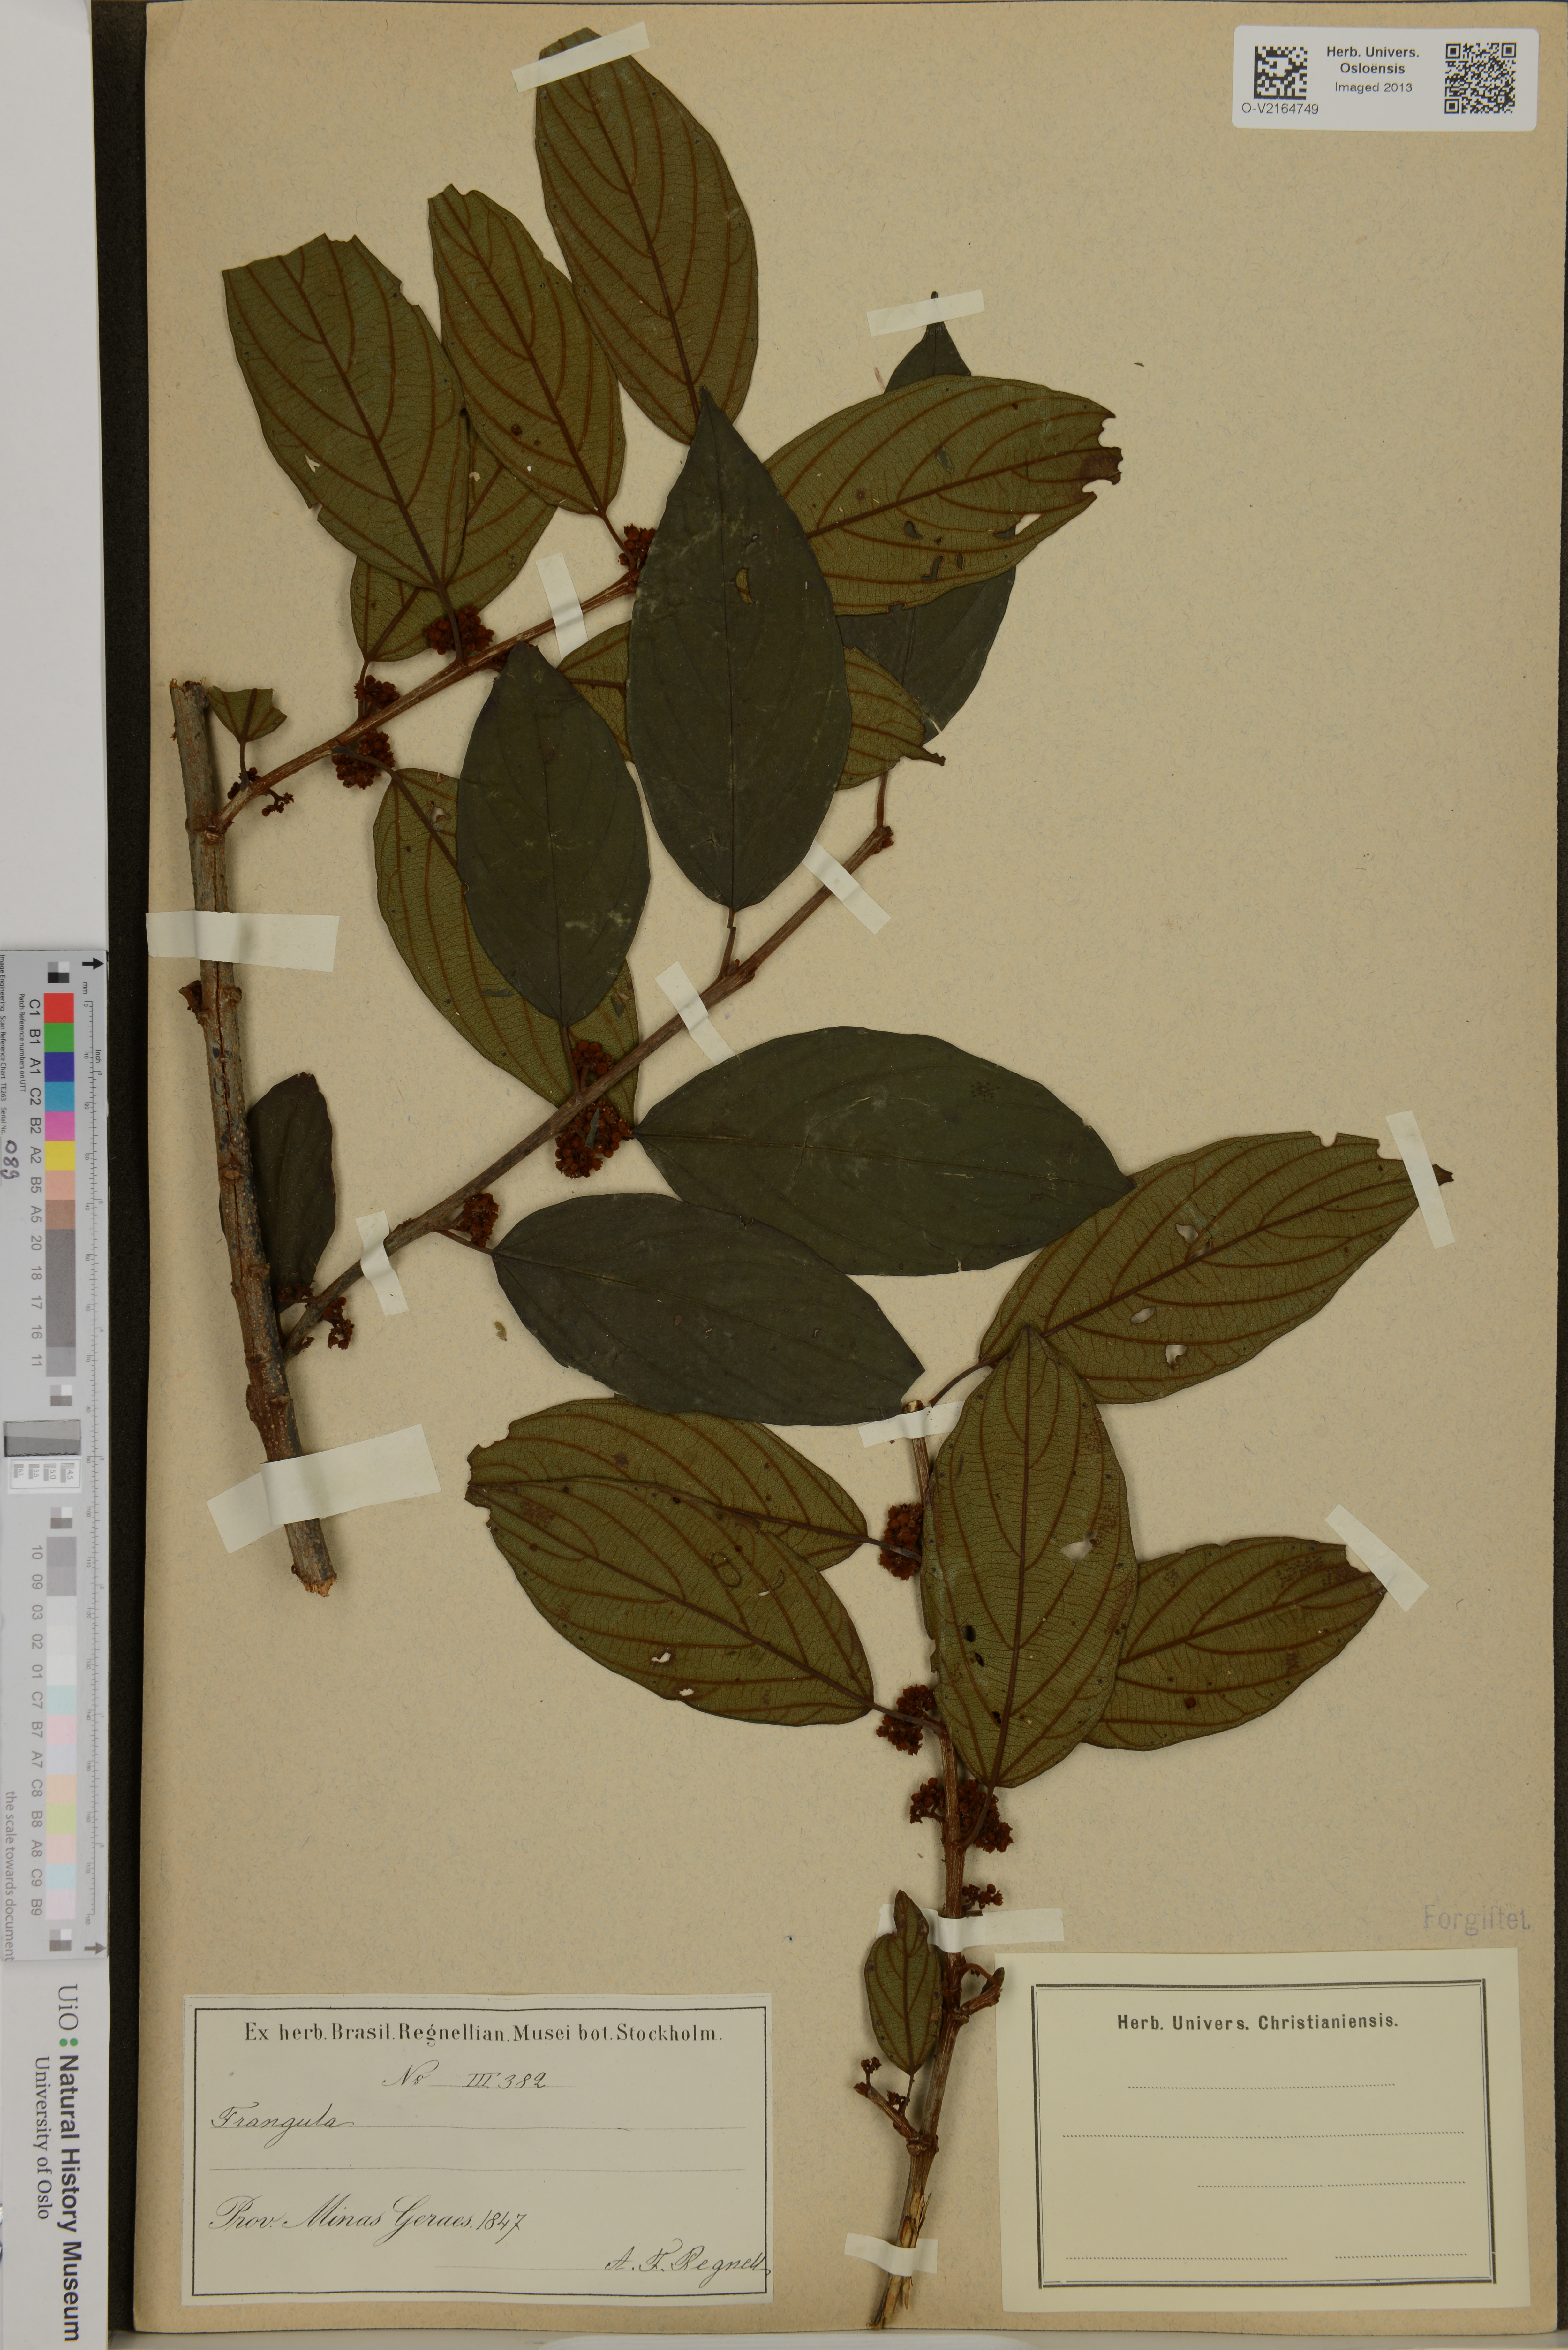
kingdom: Plantae
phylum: Tracheophyta
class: Magnoliopsida
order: Rosales
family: Rhamnaceae
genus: Rhamnus
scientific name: Rhamnus
